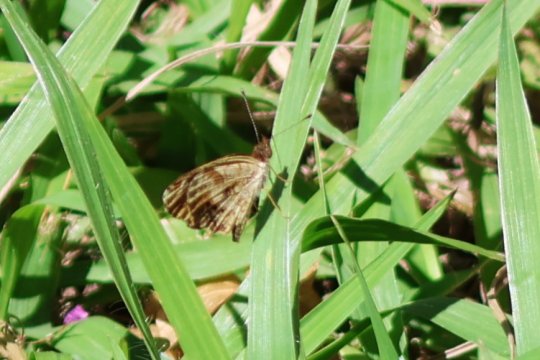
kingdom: Animalia
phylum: Arthropoda
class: Insecta
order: Lepidoptera
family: Nymphalidae
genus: Anthanassa
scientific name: Anthanassa tulcis
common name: Pale-banded Crescent
